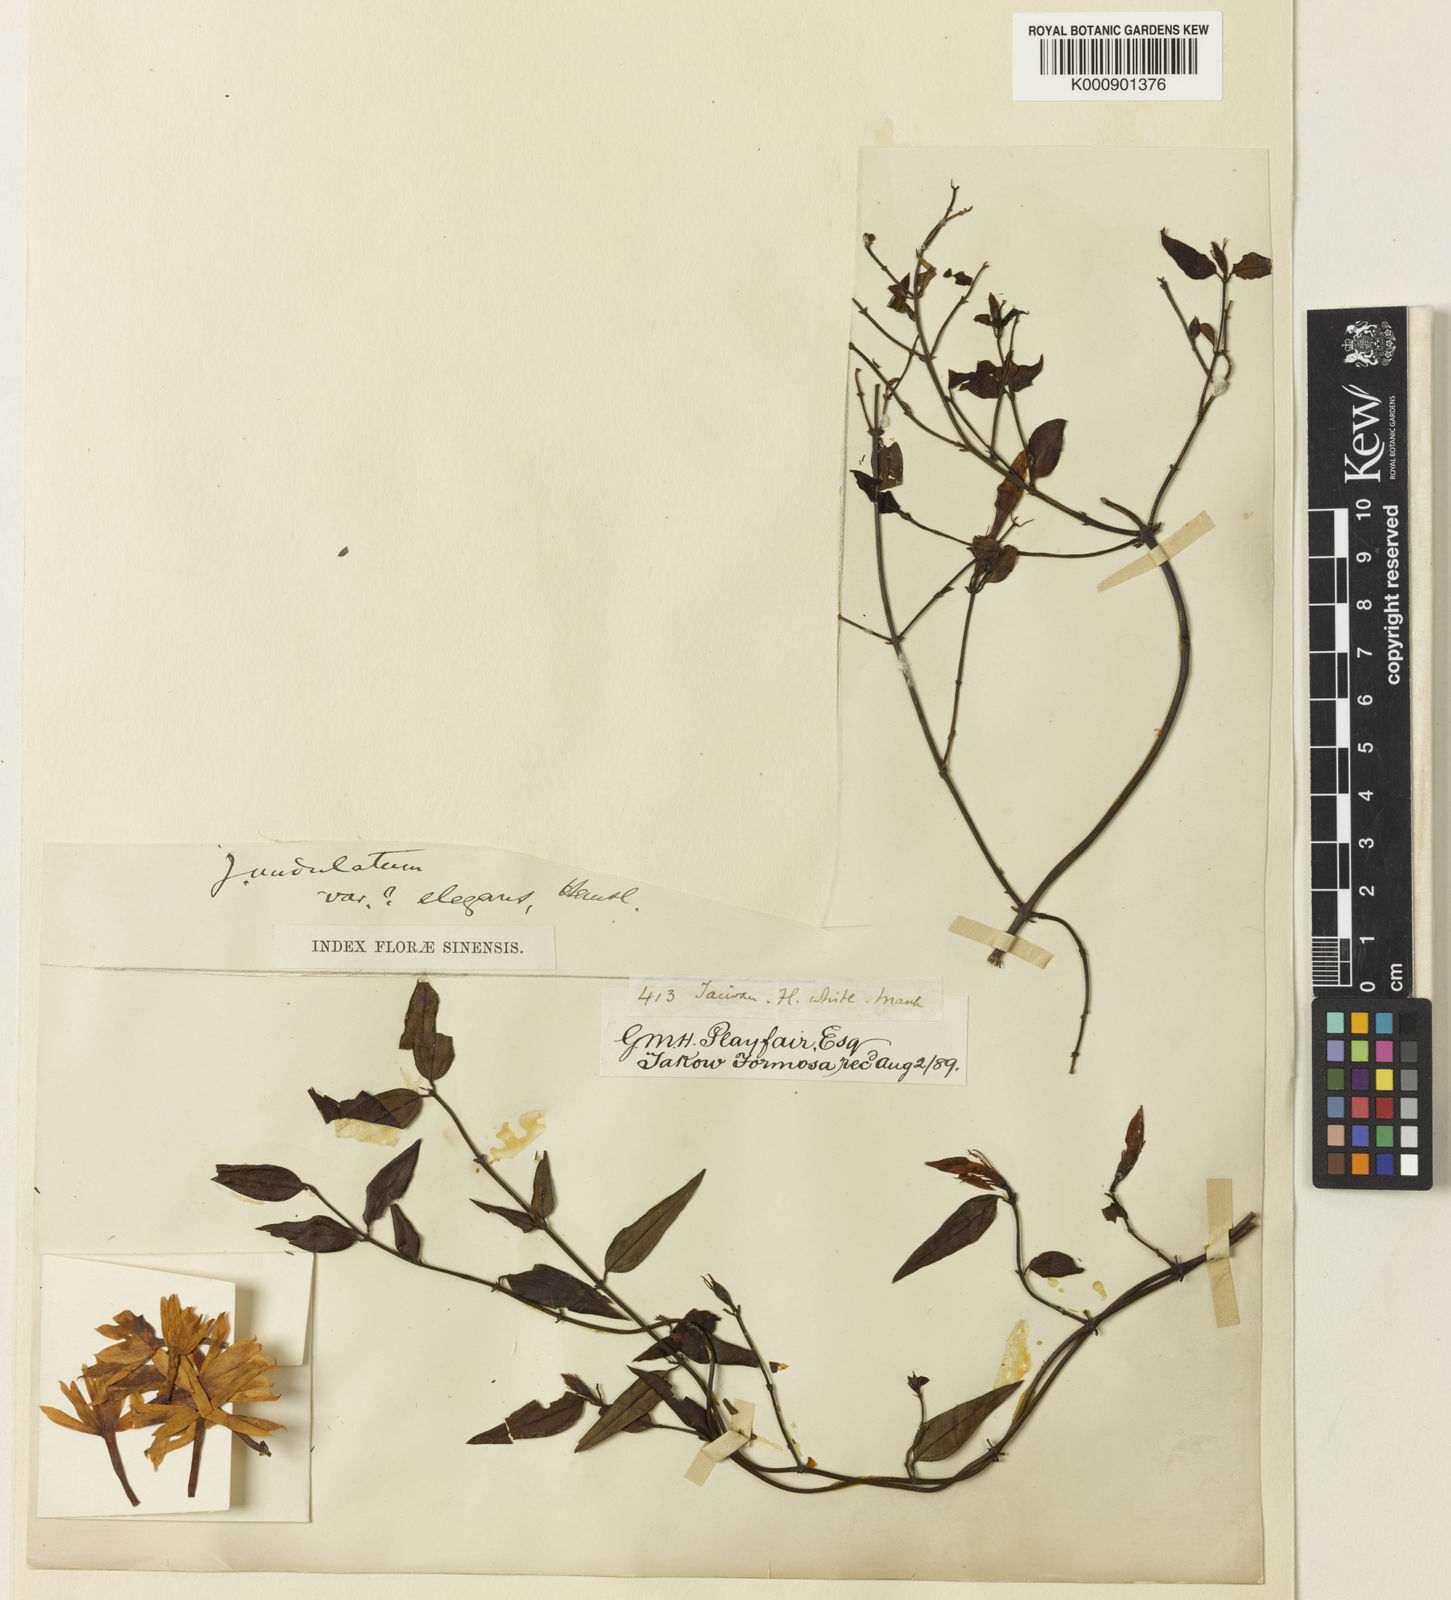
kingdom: Plantae
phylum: Tracheophyta
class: Magnoliopsida
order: Lamiales
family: Oleaceae
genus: Jasminum
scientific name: Jasminum nervosum
